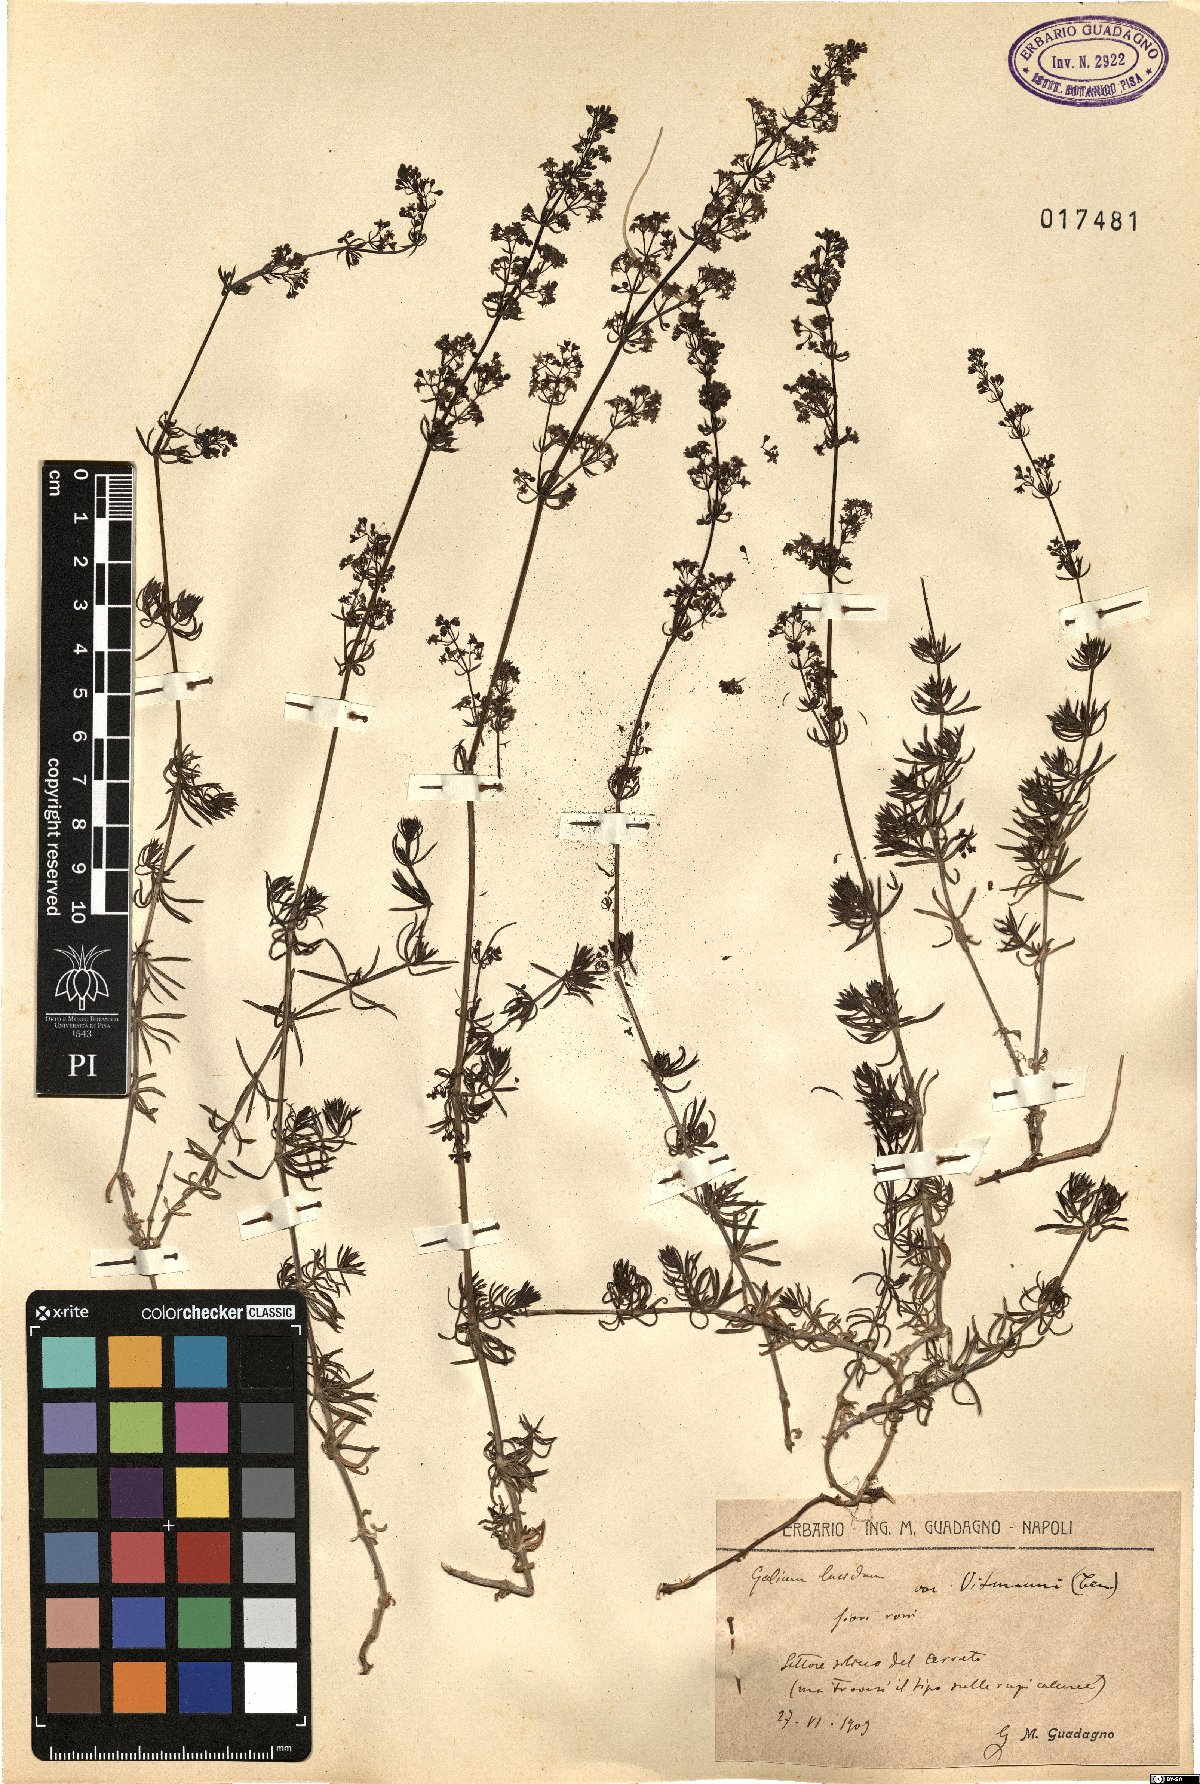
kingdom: Plantae
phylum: Tracheophyta
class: Magnoliopsida
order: Gentianales
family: Rubiaceae
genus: Galium
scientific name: Galium lucidum
